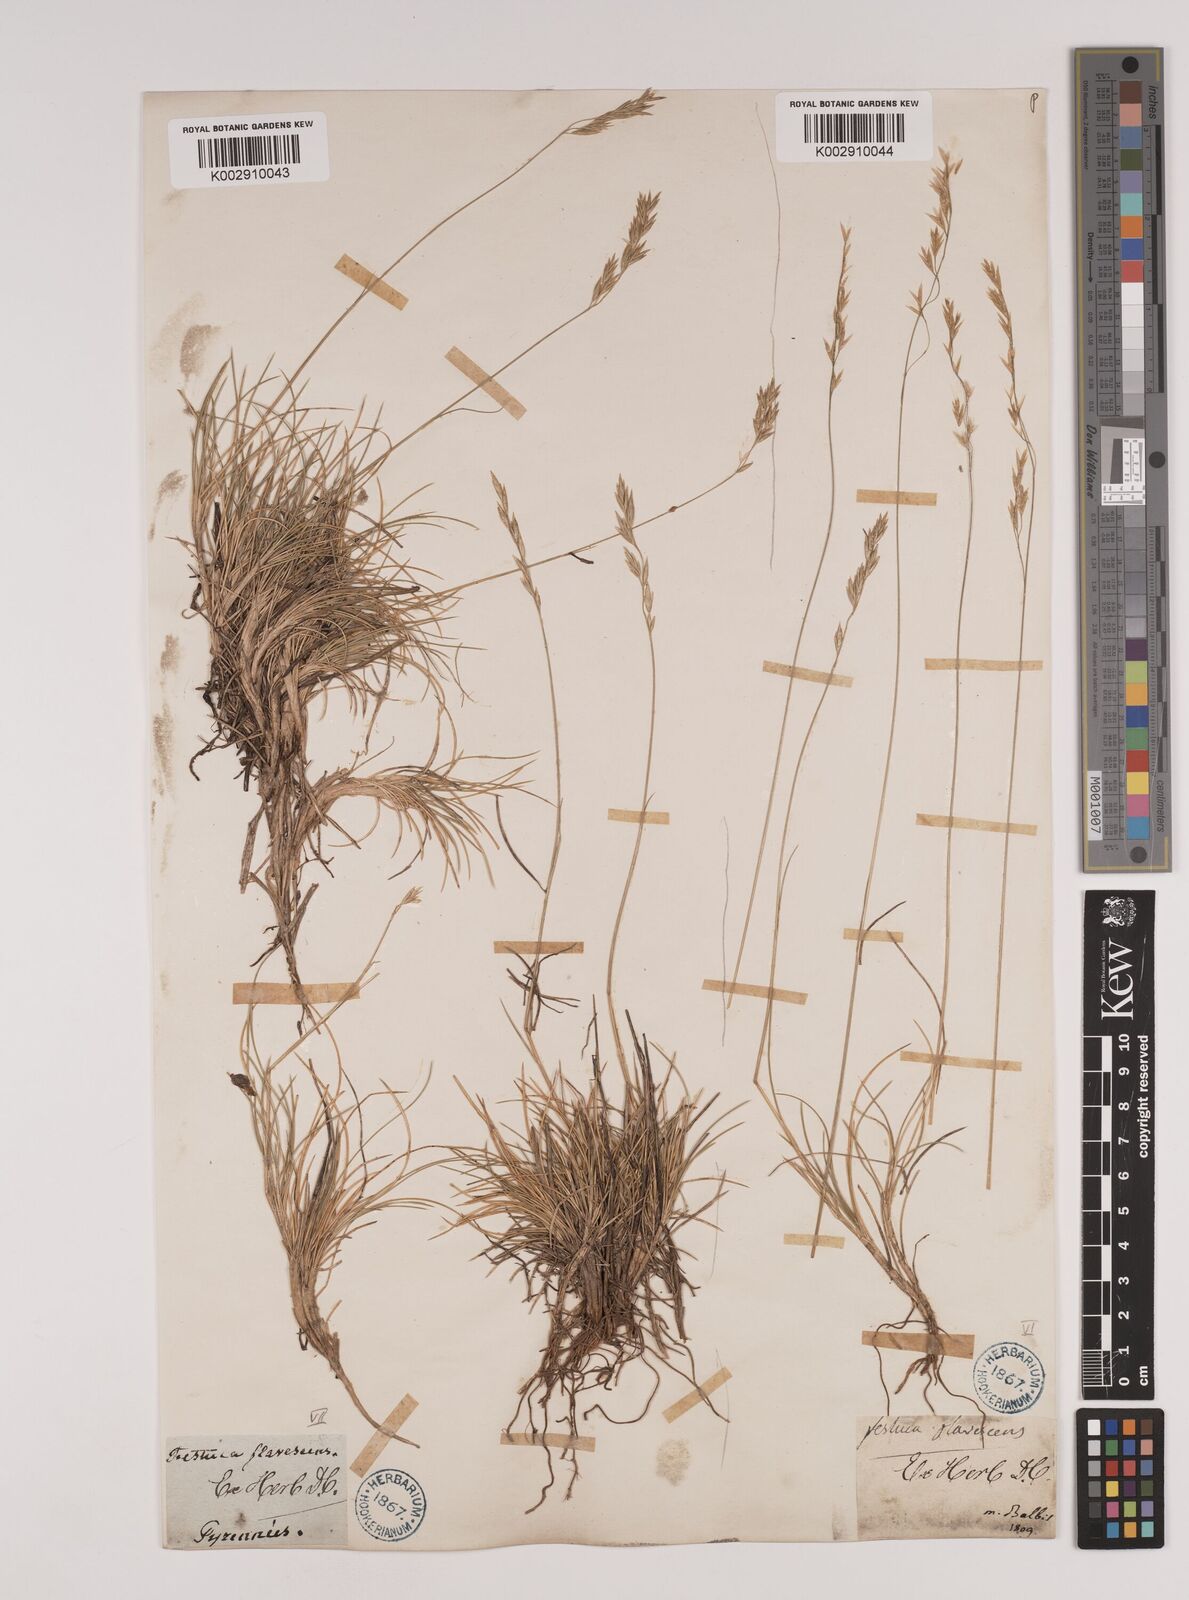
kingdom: Plantae
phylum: Tracheophyta
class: Liliopsida
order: Poales
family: Poaceae
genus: Festuca
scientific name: Festuca gautieri
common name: Spiky fescue
